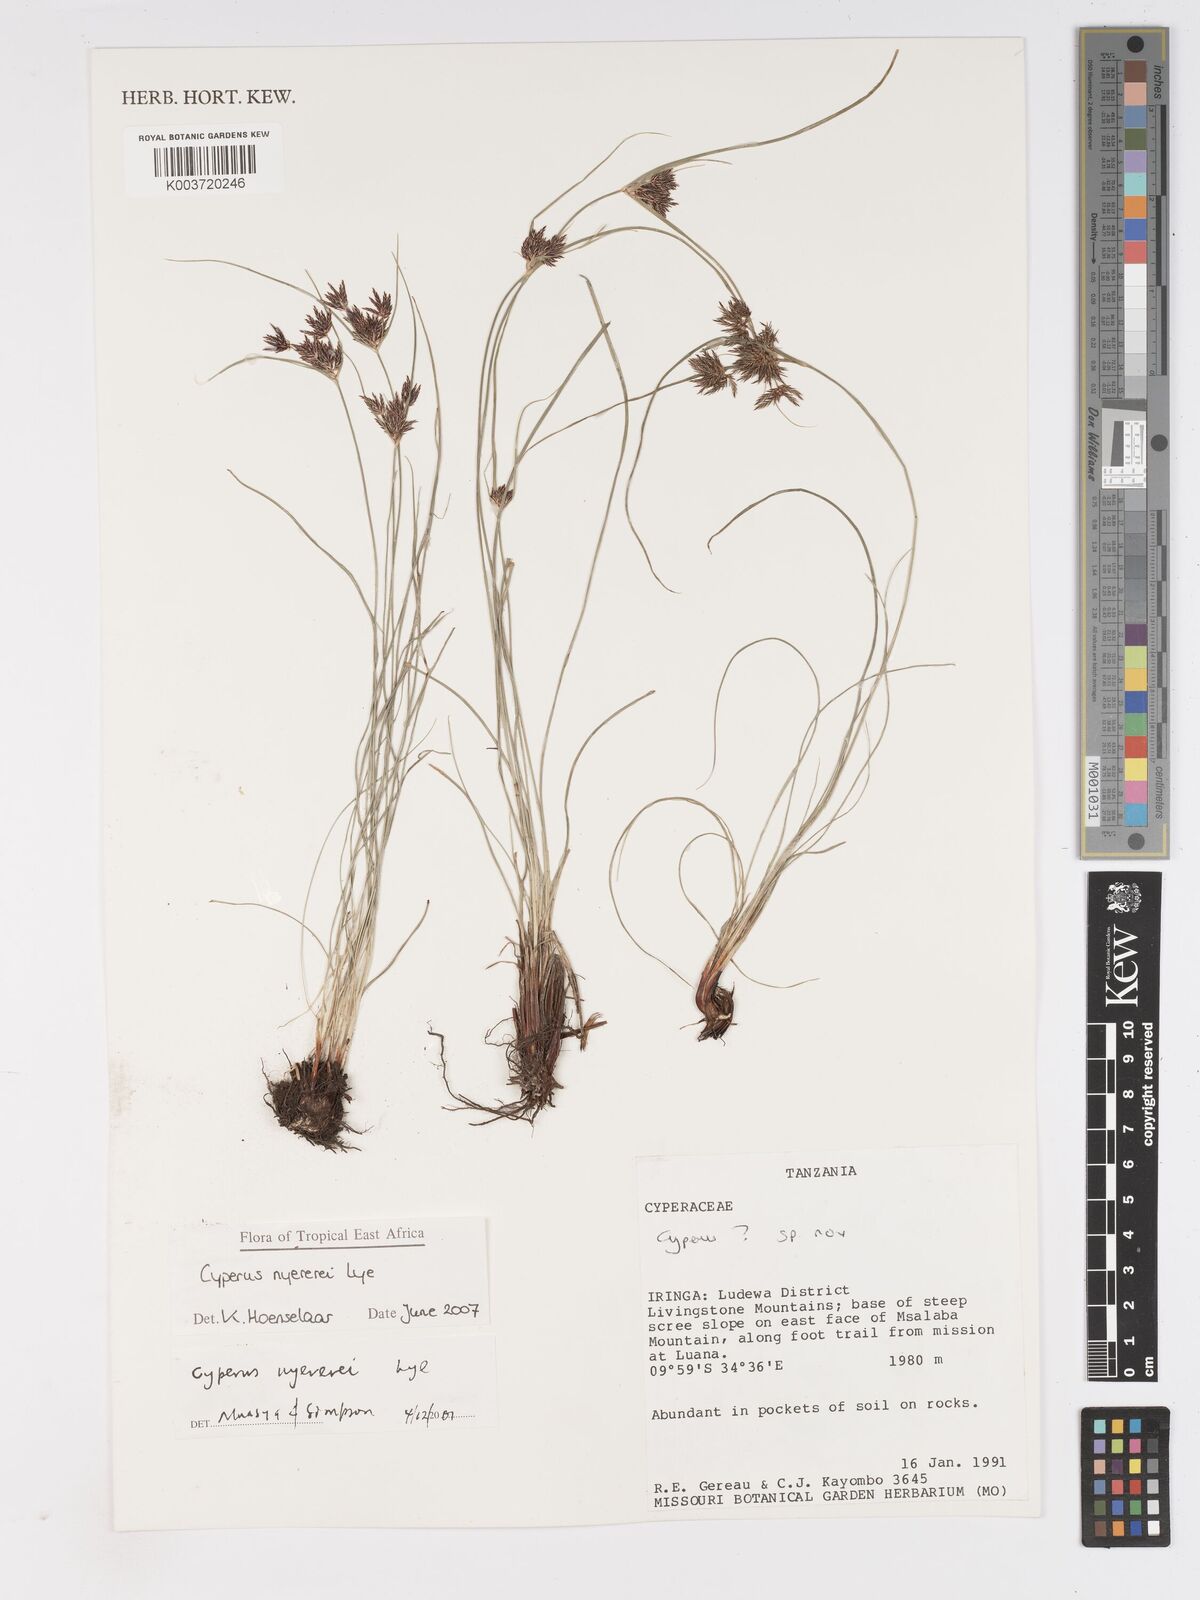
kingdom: Plantae
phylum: Tracheophyta
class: Liliopsida
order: Poales
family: Cyperaceae
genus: Cyperus
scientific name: Cyperus nyererei
